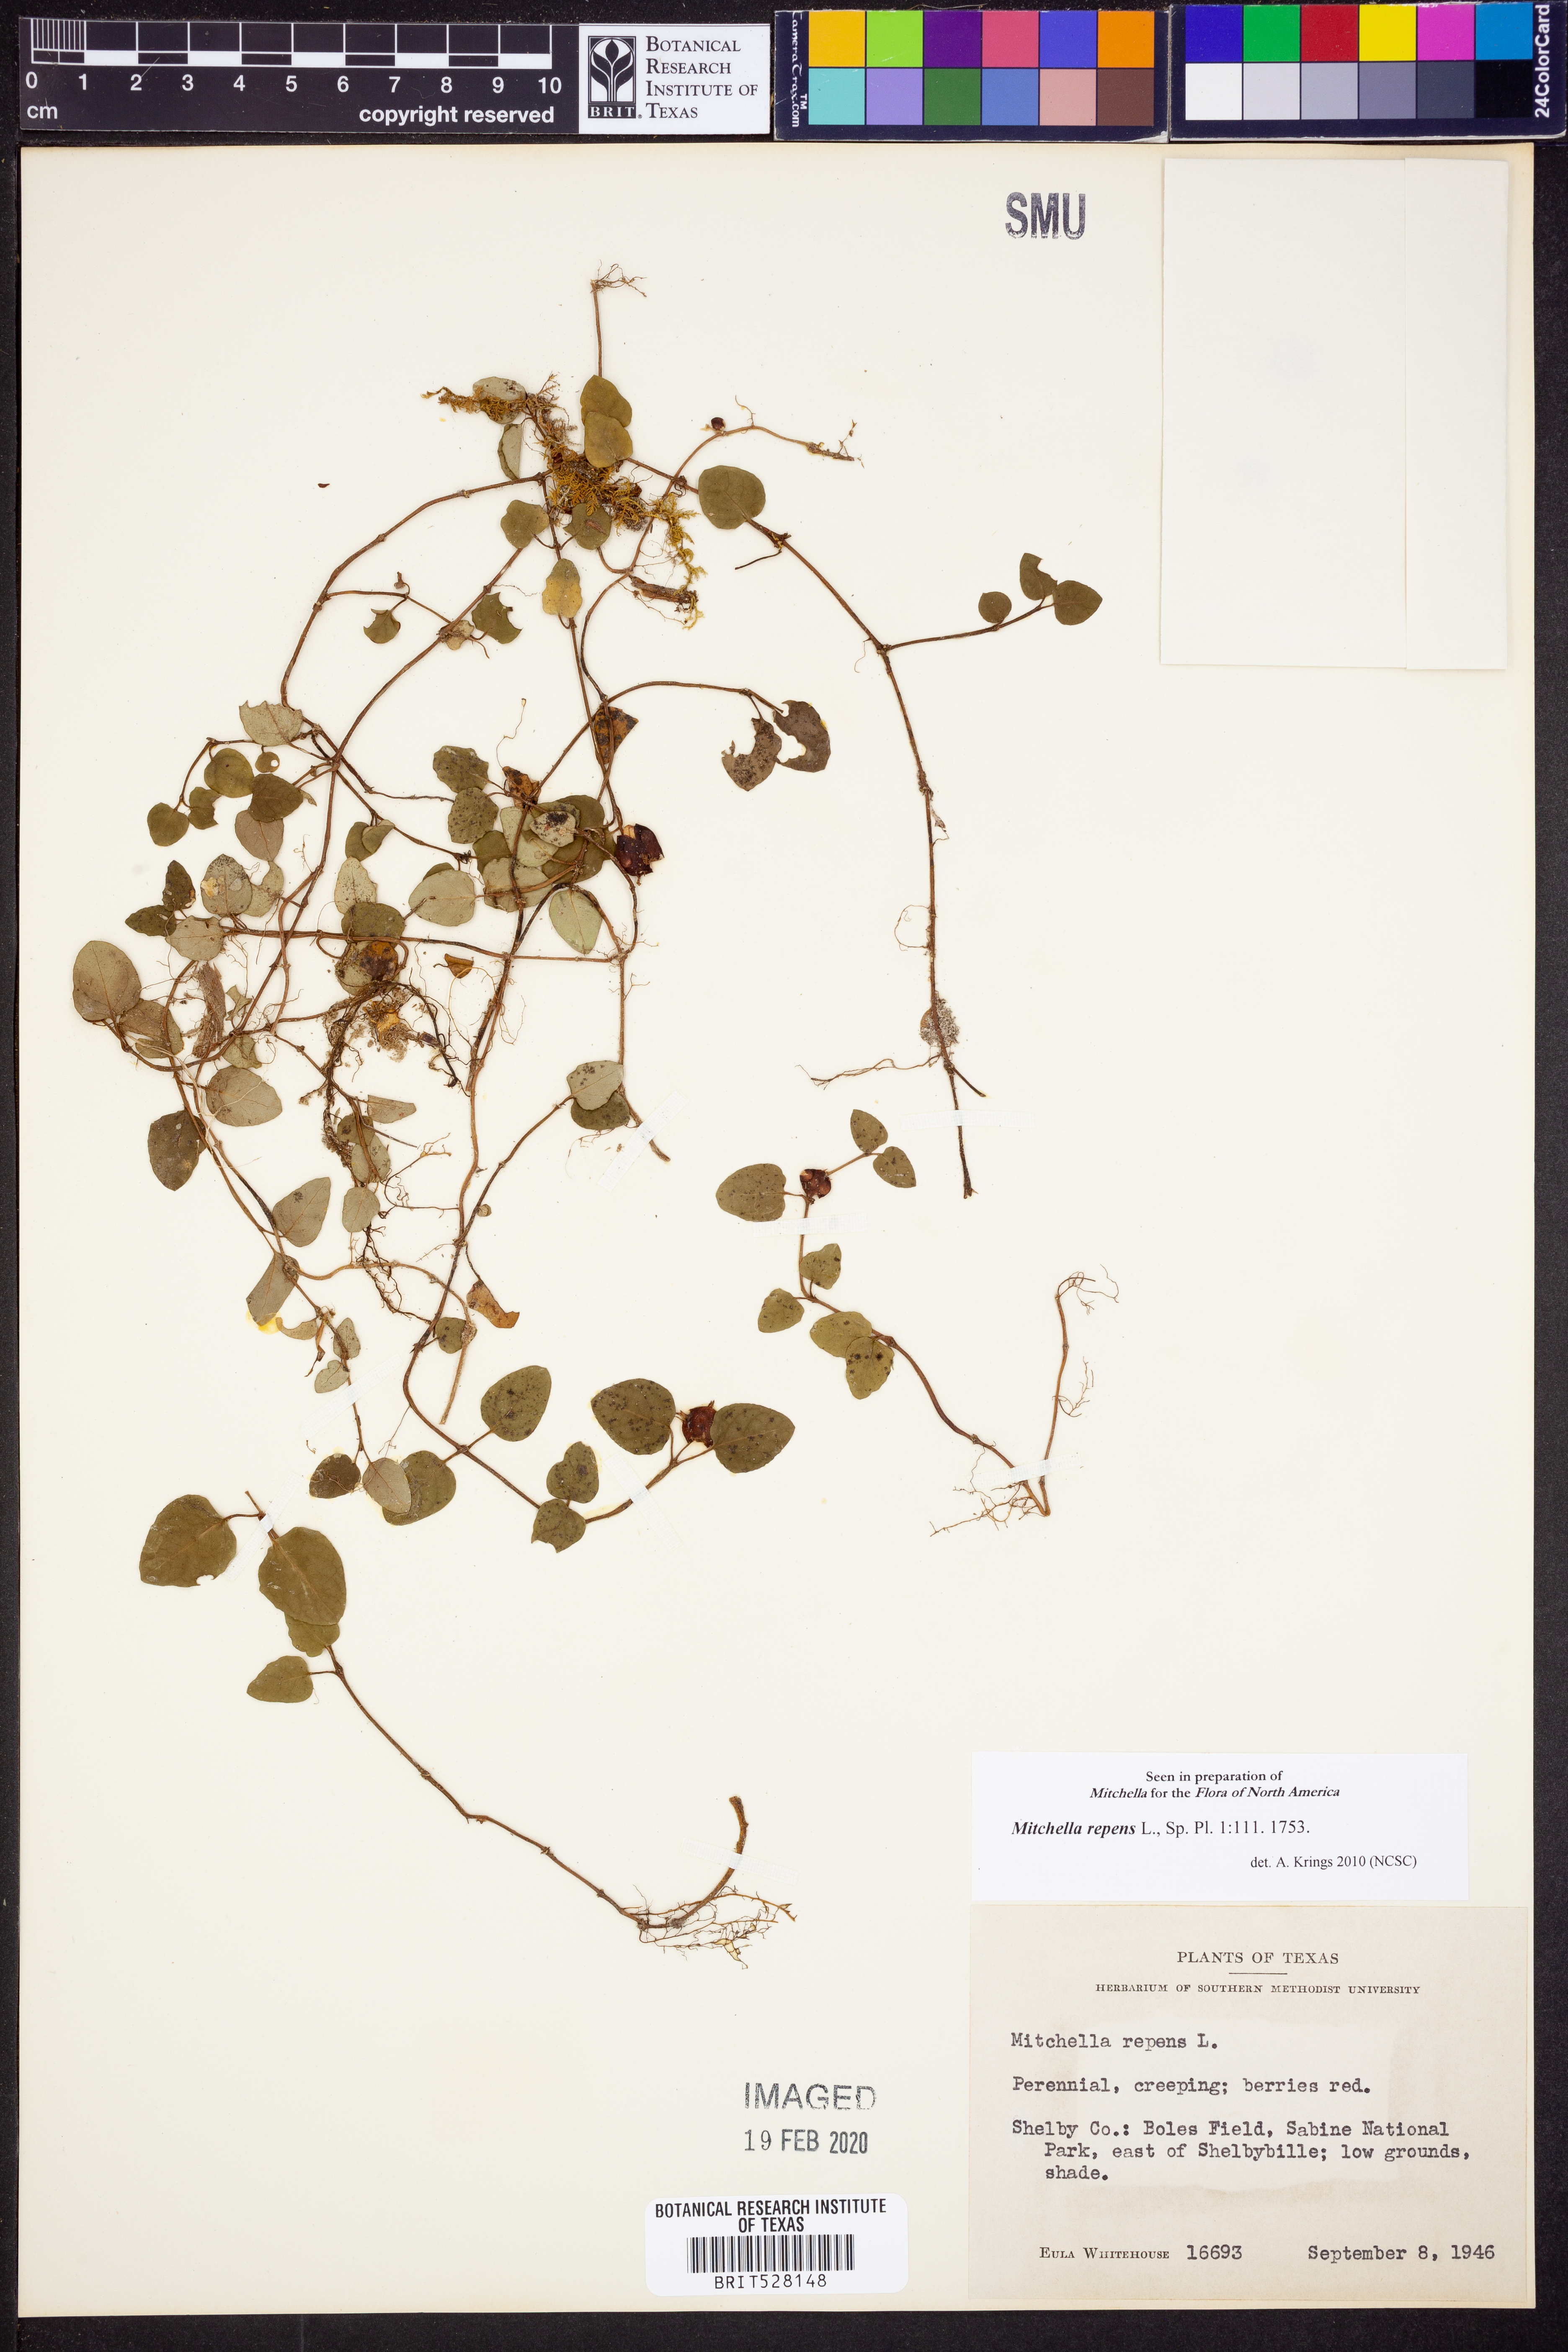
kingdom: Plantae
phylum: Tracheophyta
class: Magnoliopsida
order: Gentianales
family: Rubiaceae
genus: Mitchella
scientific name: Mitchella repens
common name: Partridge-berry
